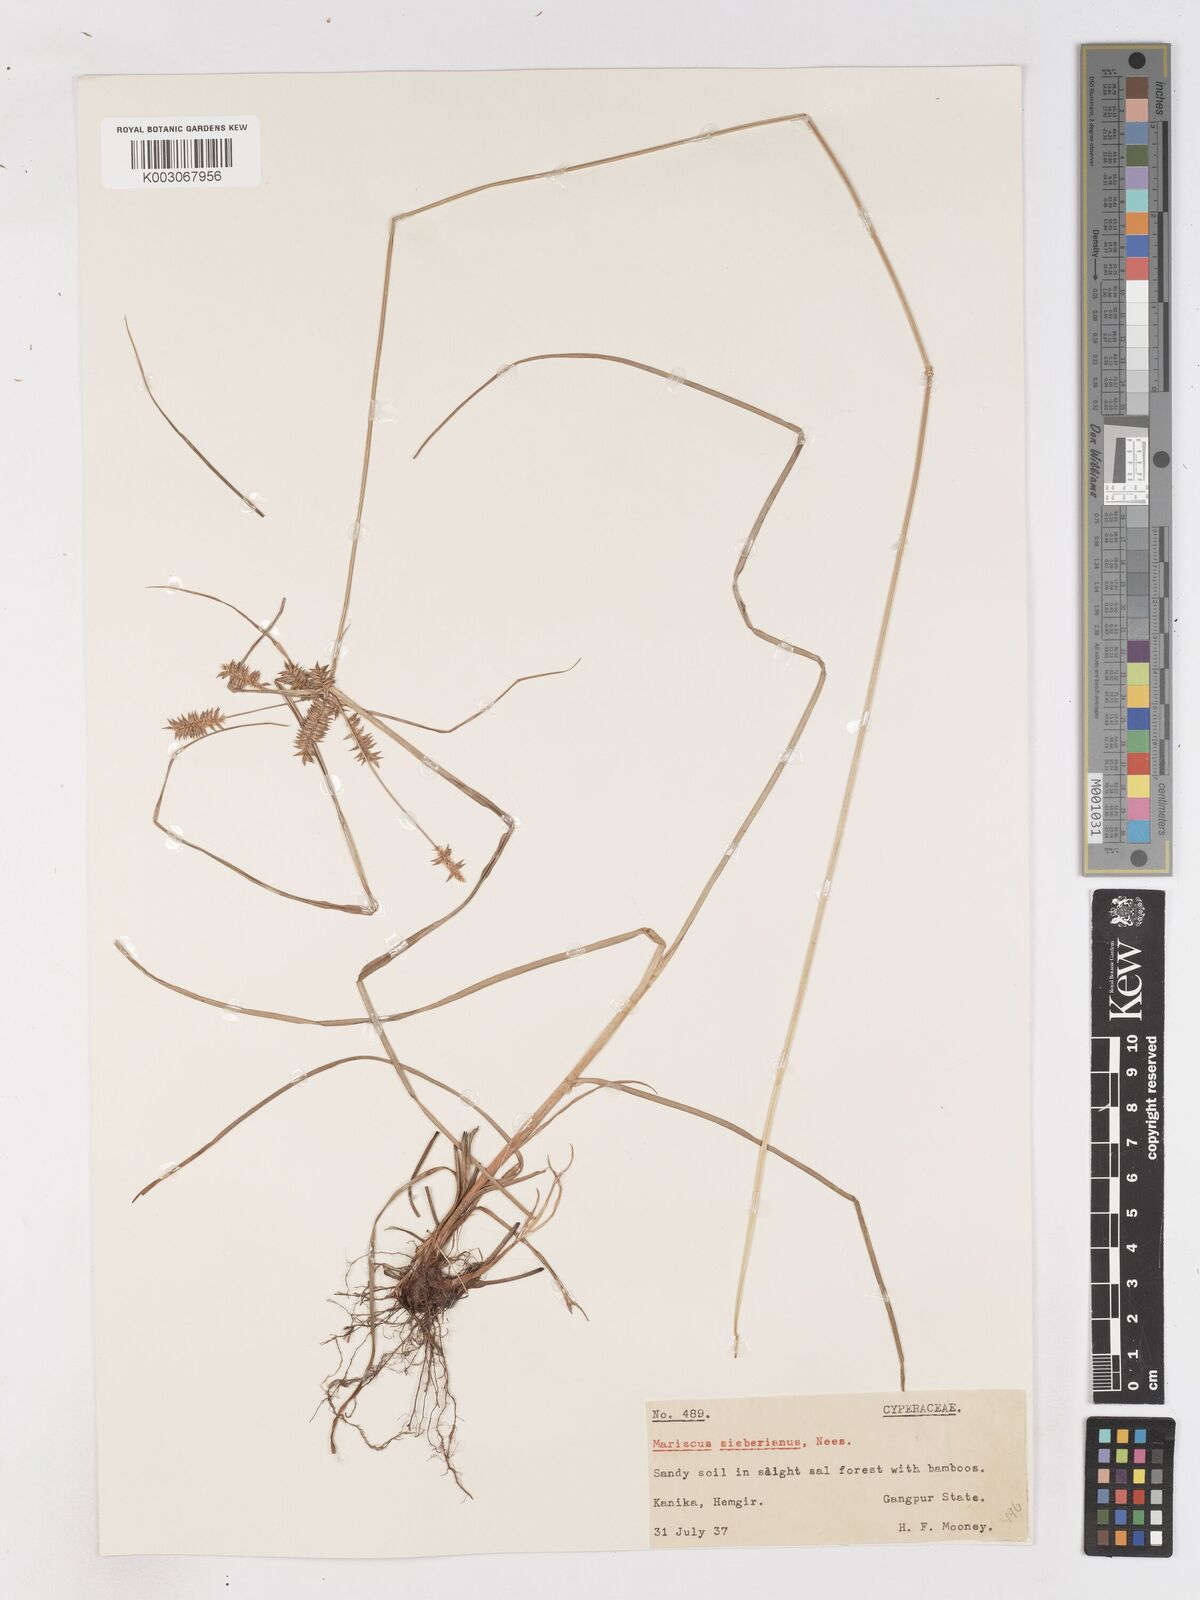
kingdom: Plantae
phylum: Tracheophyta
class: Liliopsida
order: Poales
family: Cyperaceae
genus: Cyperus
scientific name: Cyperus paniceus
